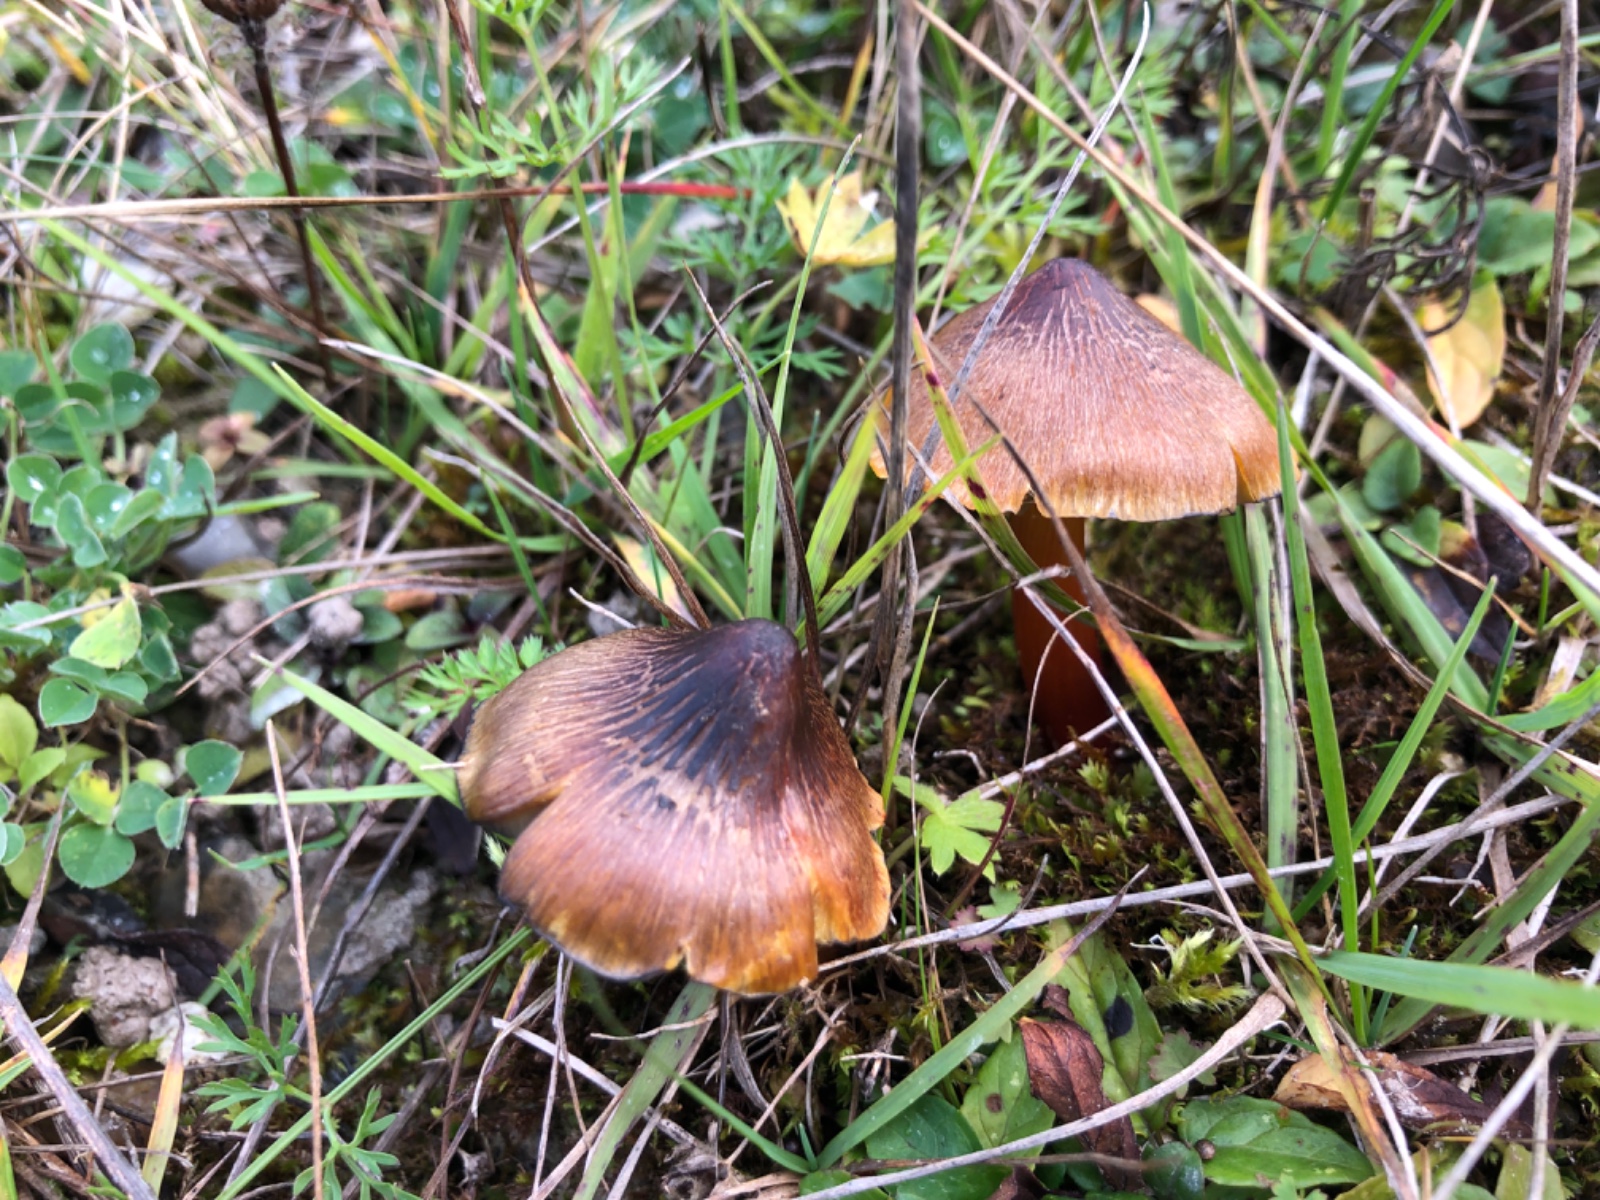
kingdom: Fungi
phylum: Basidiomycota
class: Agaricomycetes
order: Agaricales
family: Hygrophoraceae
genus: Hygrocybe
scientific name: Hygrocybe conica
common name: kegle-vokshat
